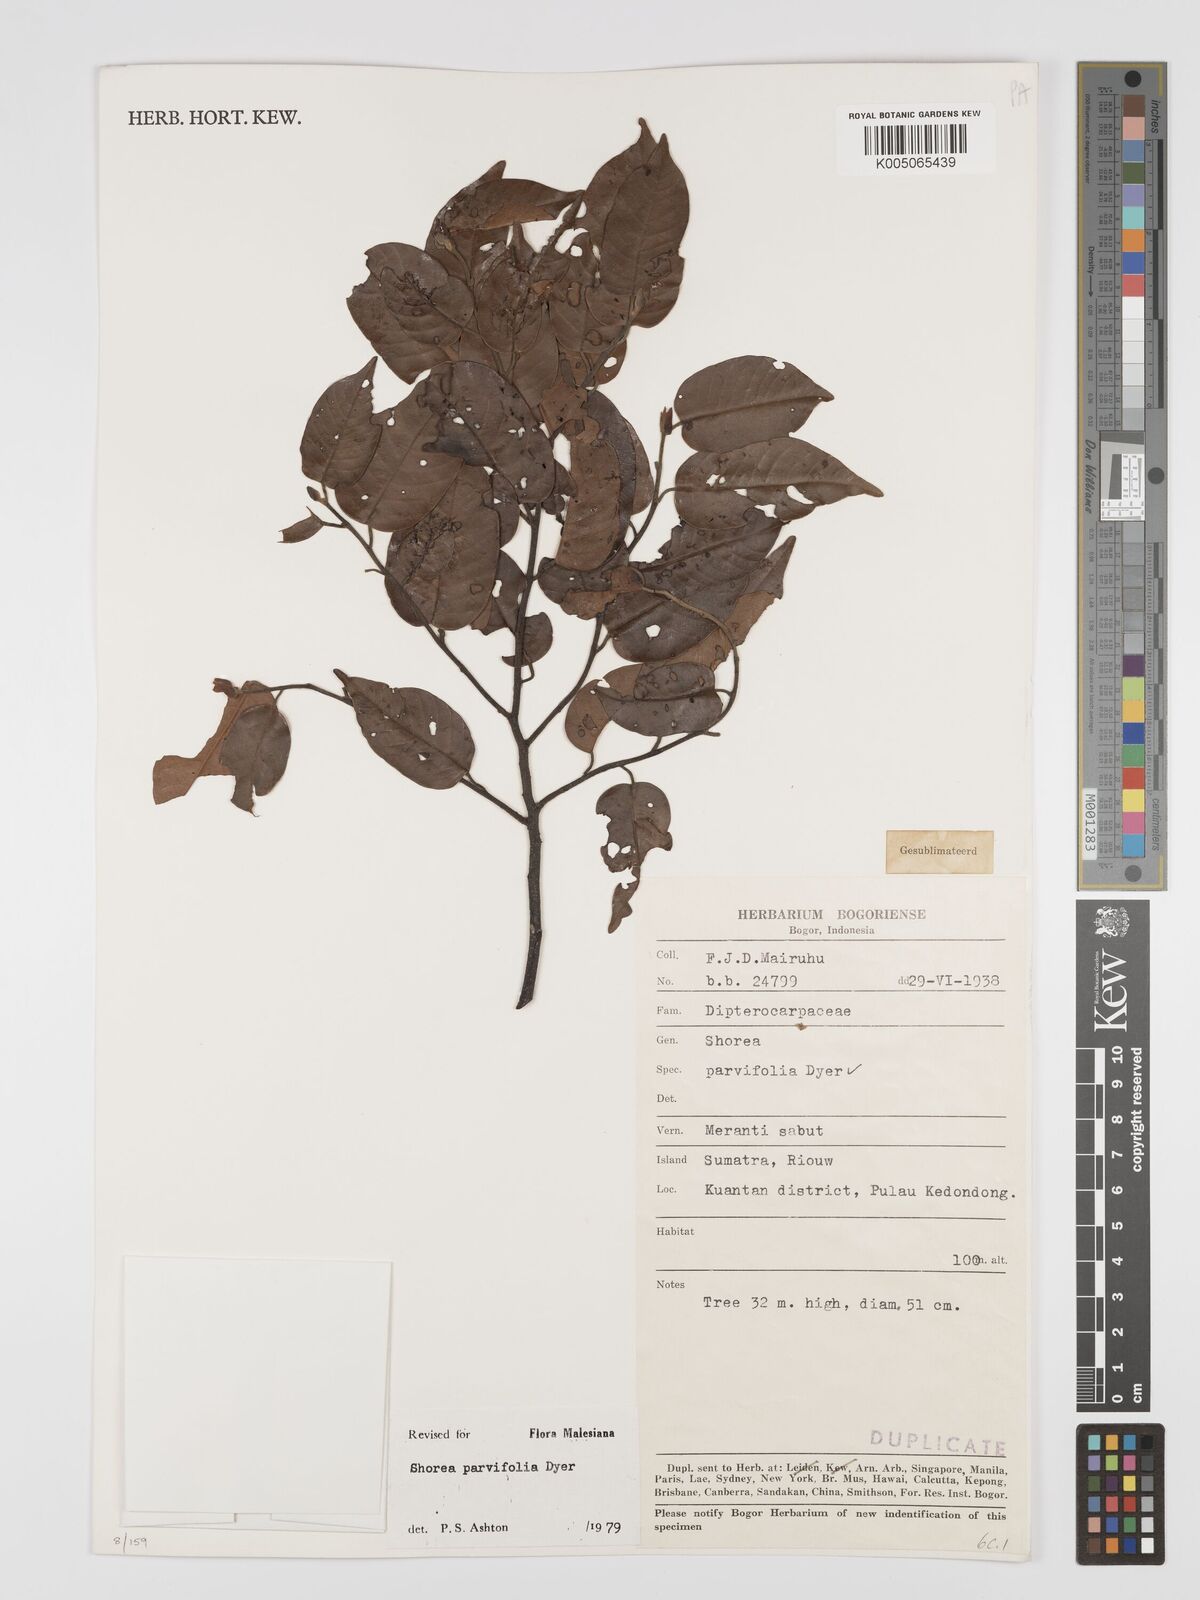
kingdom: Plantae
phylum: Tracheophyta
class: Magnoliopsida
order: Malvales
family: Dipterocarpaceae
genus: Shorea
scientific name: Shorea parvifolia
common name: Light red meranti
